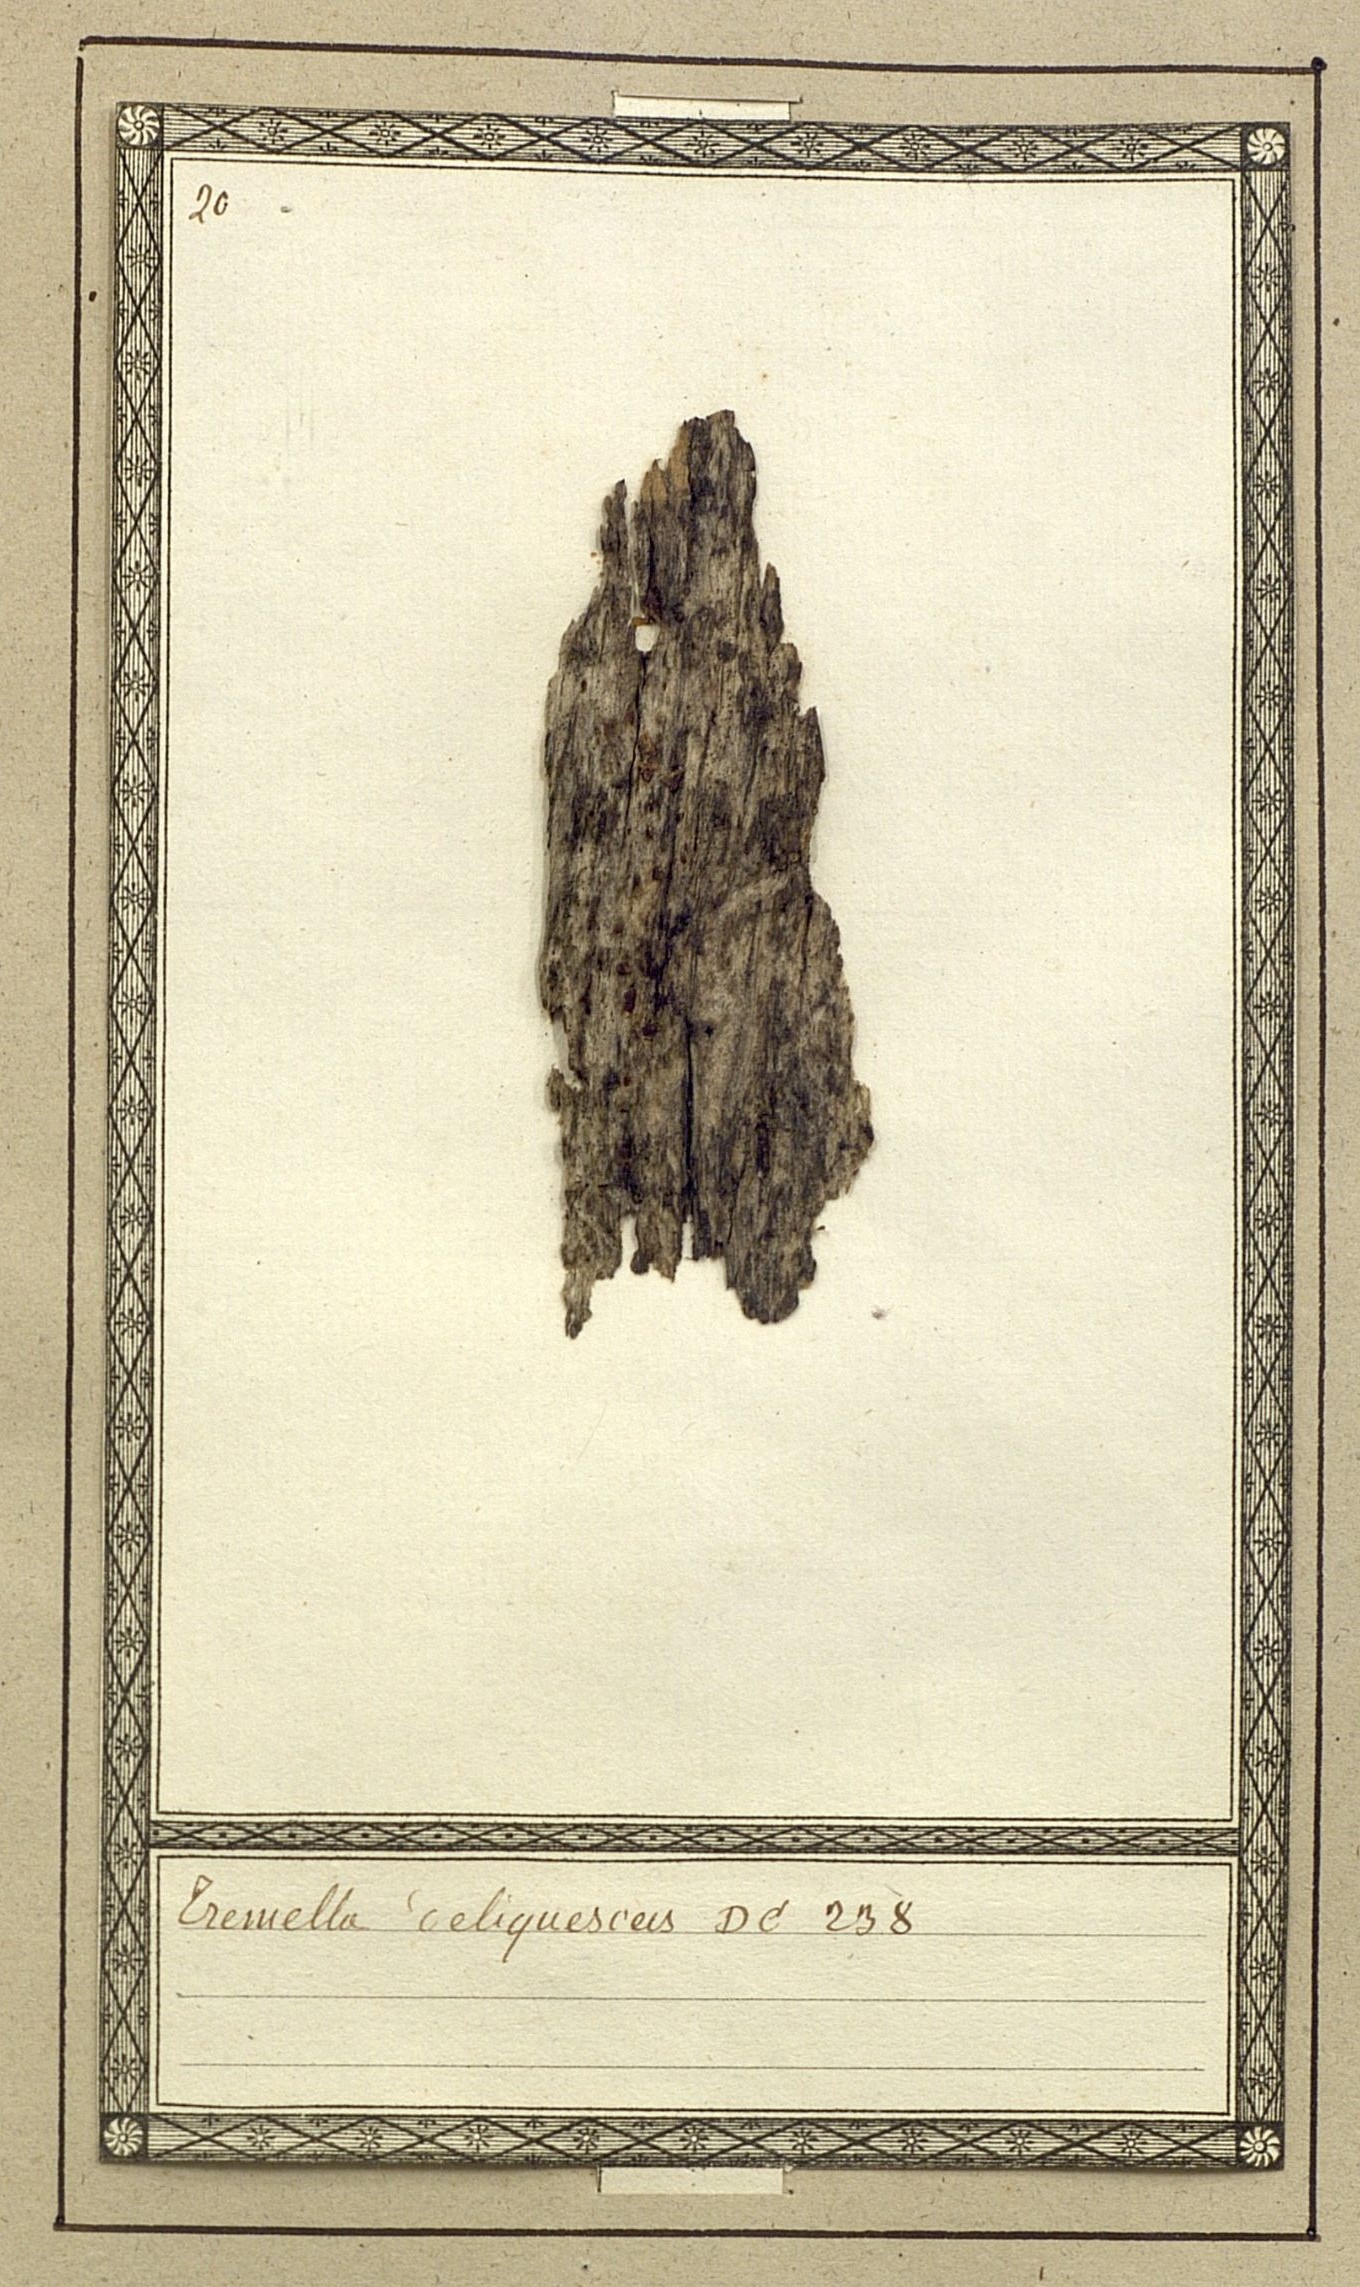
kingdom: Fungi
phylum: Basidiomycota
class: Dacrymycetes
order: Dacrymycetales
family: Dacrymycetaceae
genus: Dacrymyces
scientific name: Dacrymyces stillatus
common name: Common jelly spot
